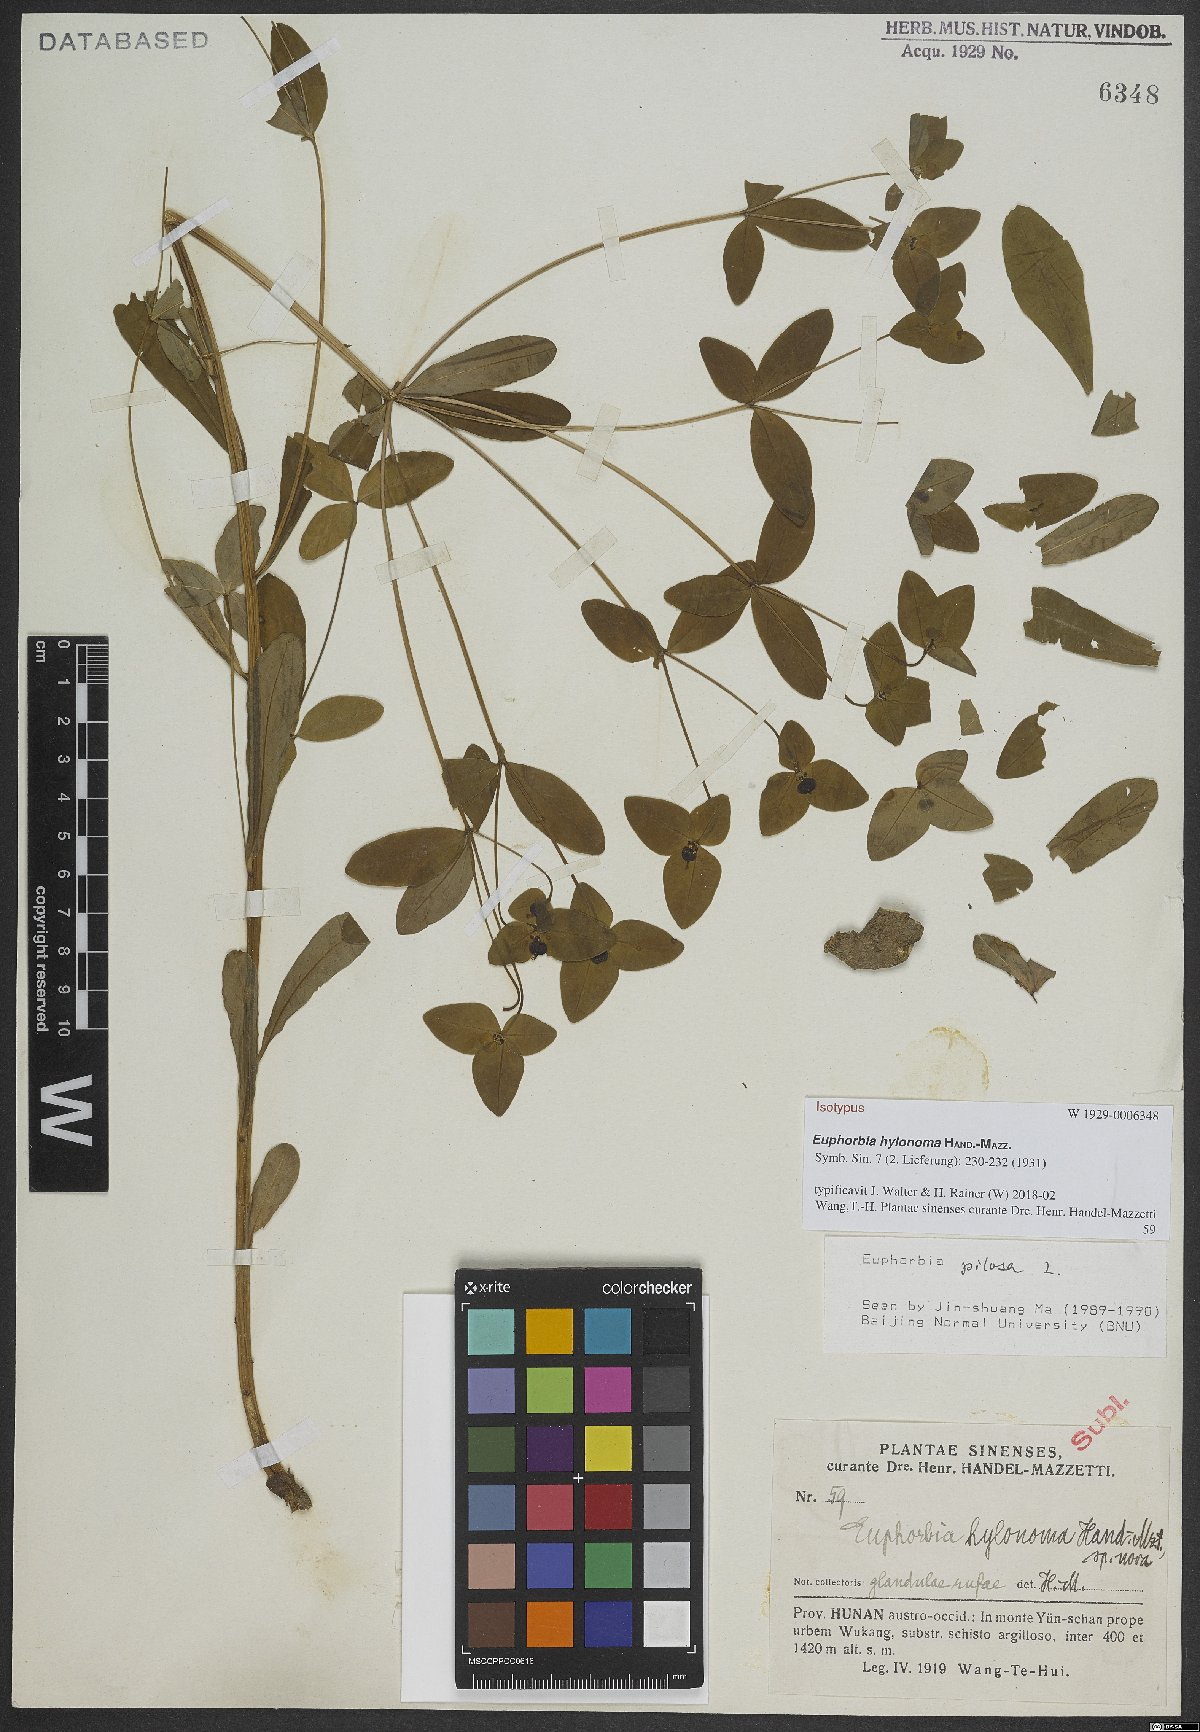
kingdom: Plantae
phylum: Tracheophyta
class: Magnoliopsida
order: Malpighiales
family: Euphorbiaceae
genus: Euphorbia
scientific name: Euphorbia hylonoma
